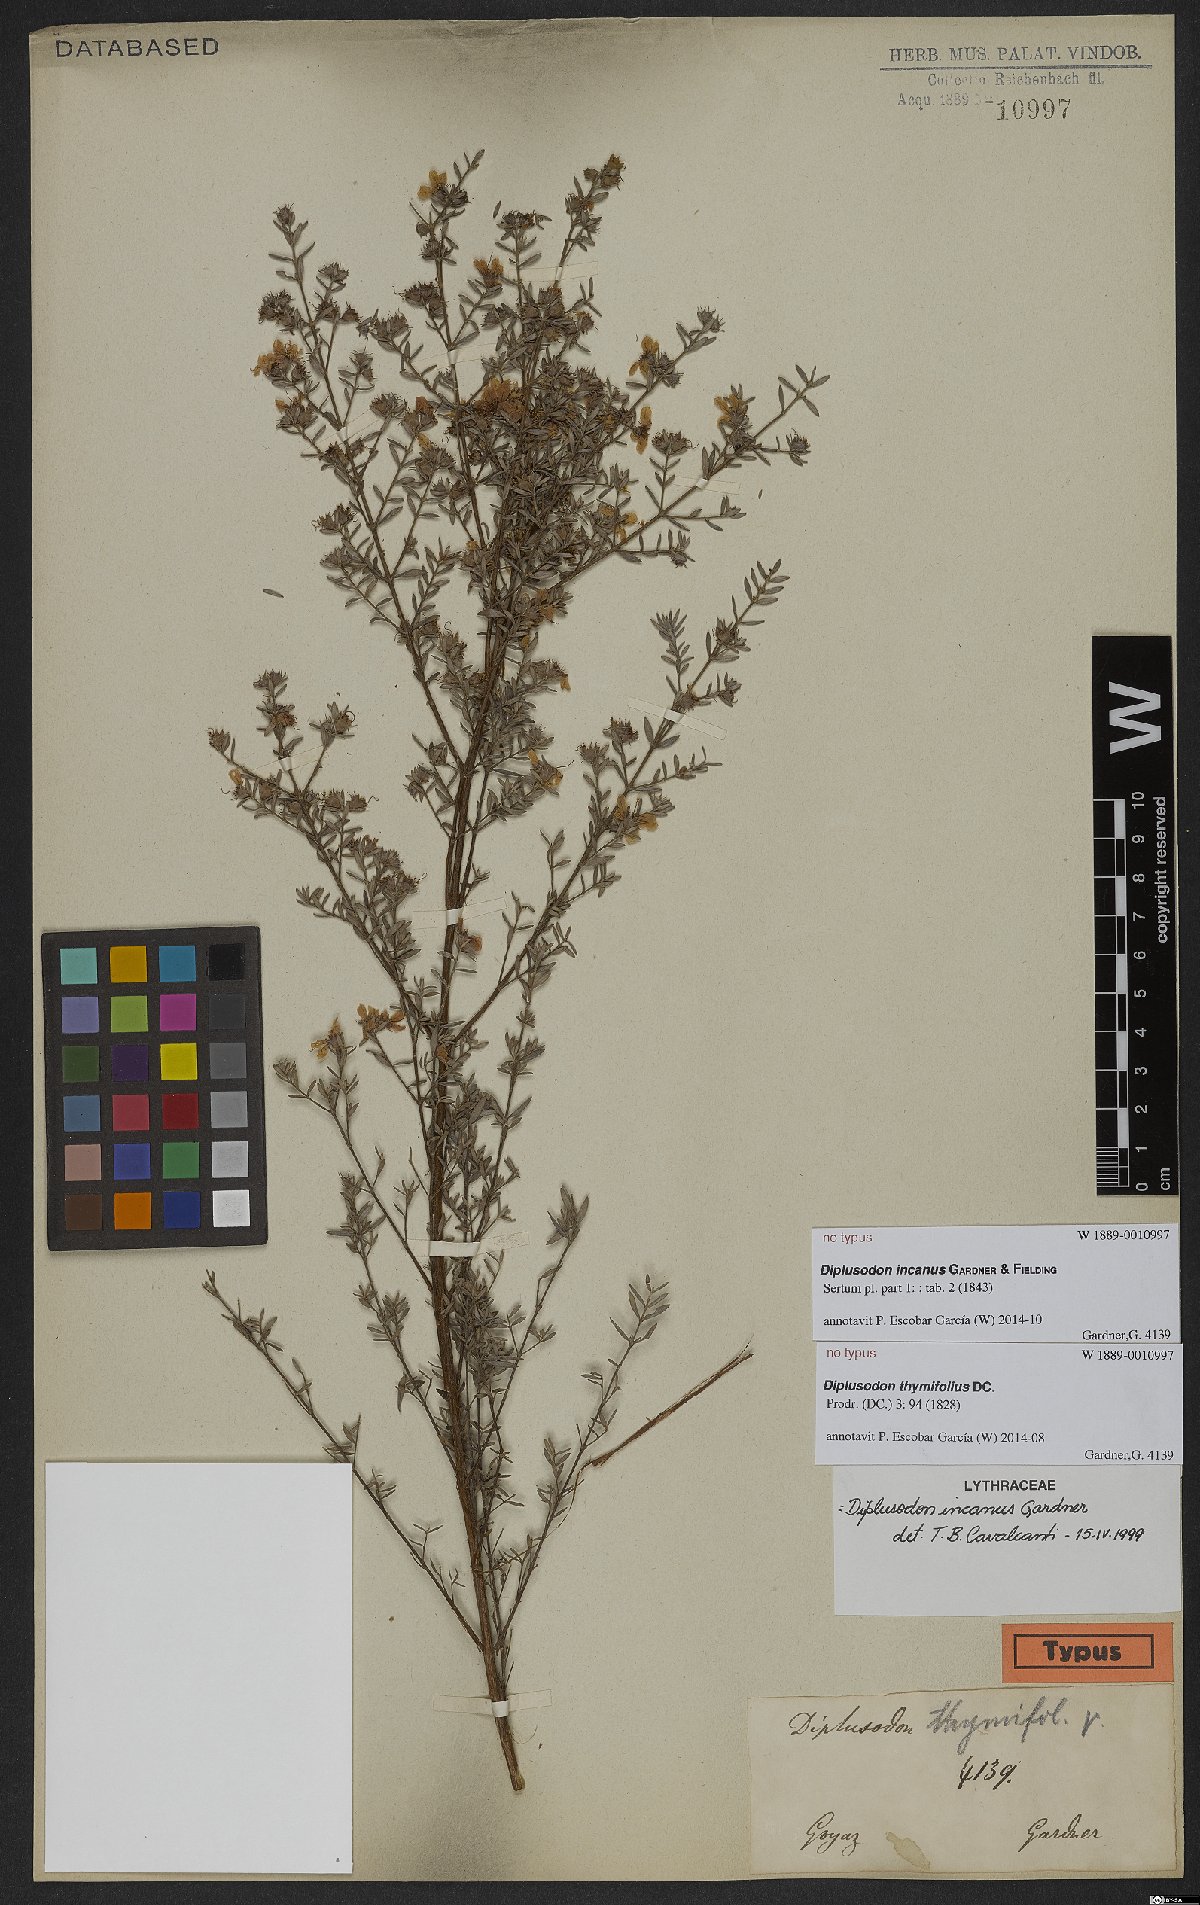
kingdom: Plantae
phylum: Tracheophyta
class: Magnoliopsida
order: Myrtales
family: Lythraceae
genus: Diplusodon
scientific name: Diplusodon incanus
